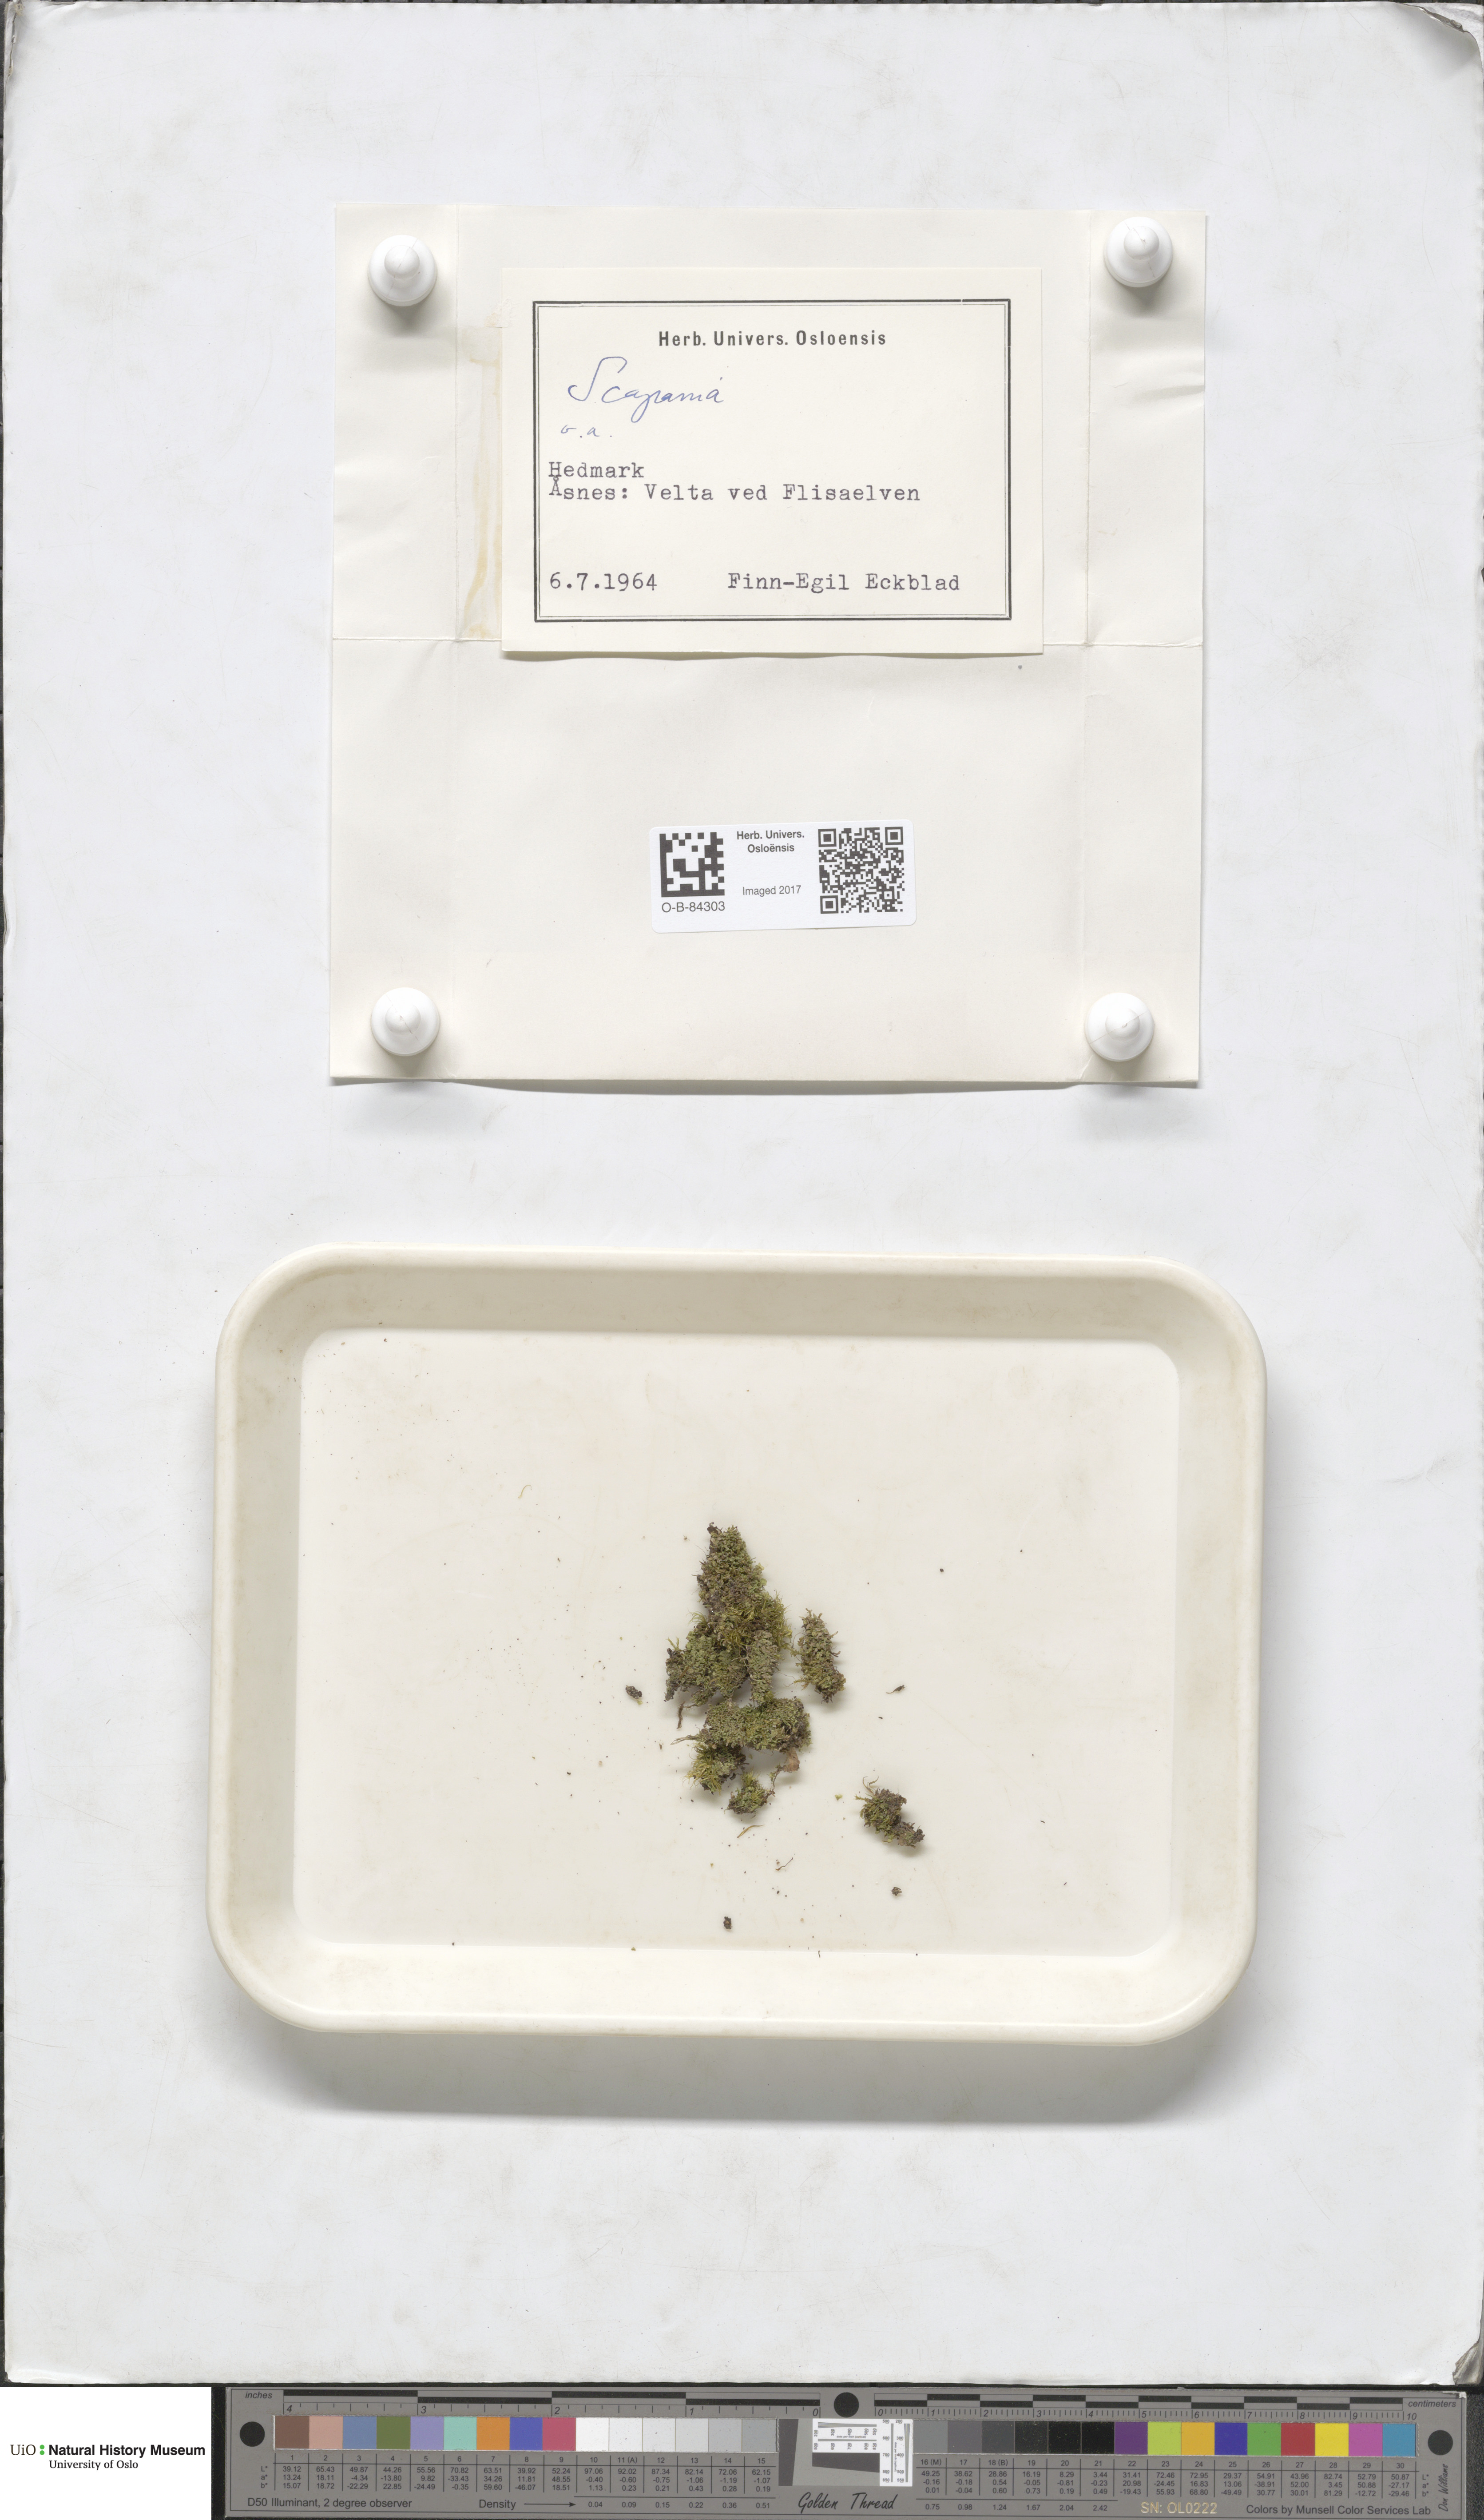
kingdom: Plantae
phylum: Marchantiophyta
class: Jungermanniopsida
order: Jungermanniales
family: Scapaniaceae
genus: Scapania
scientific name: Scapania
